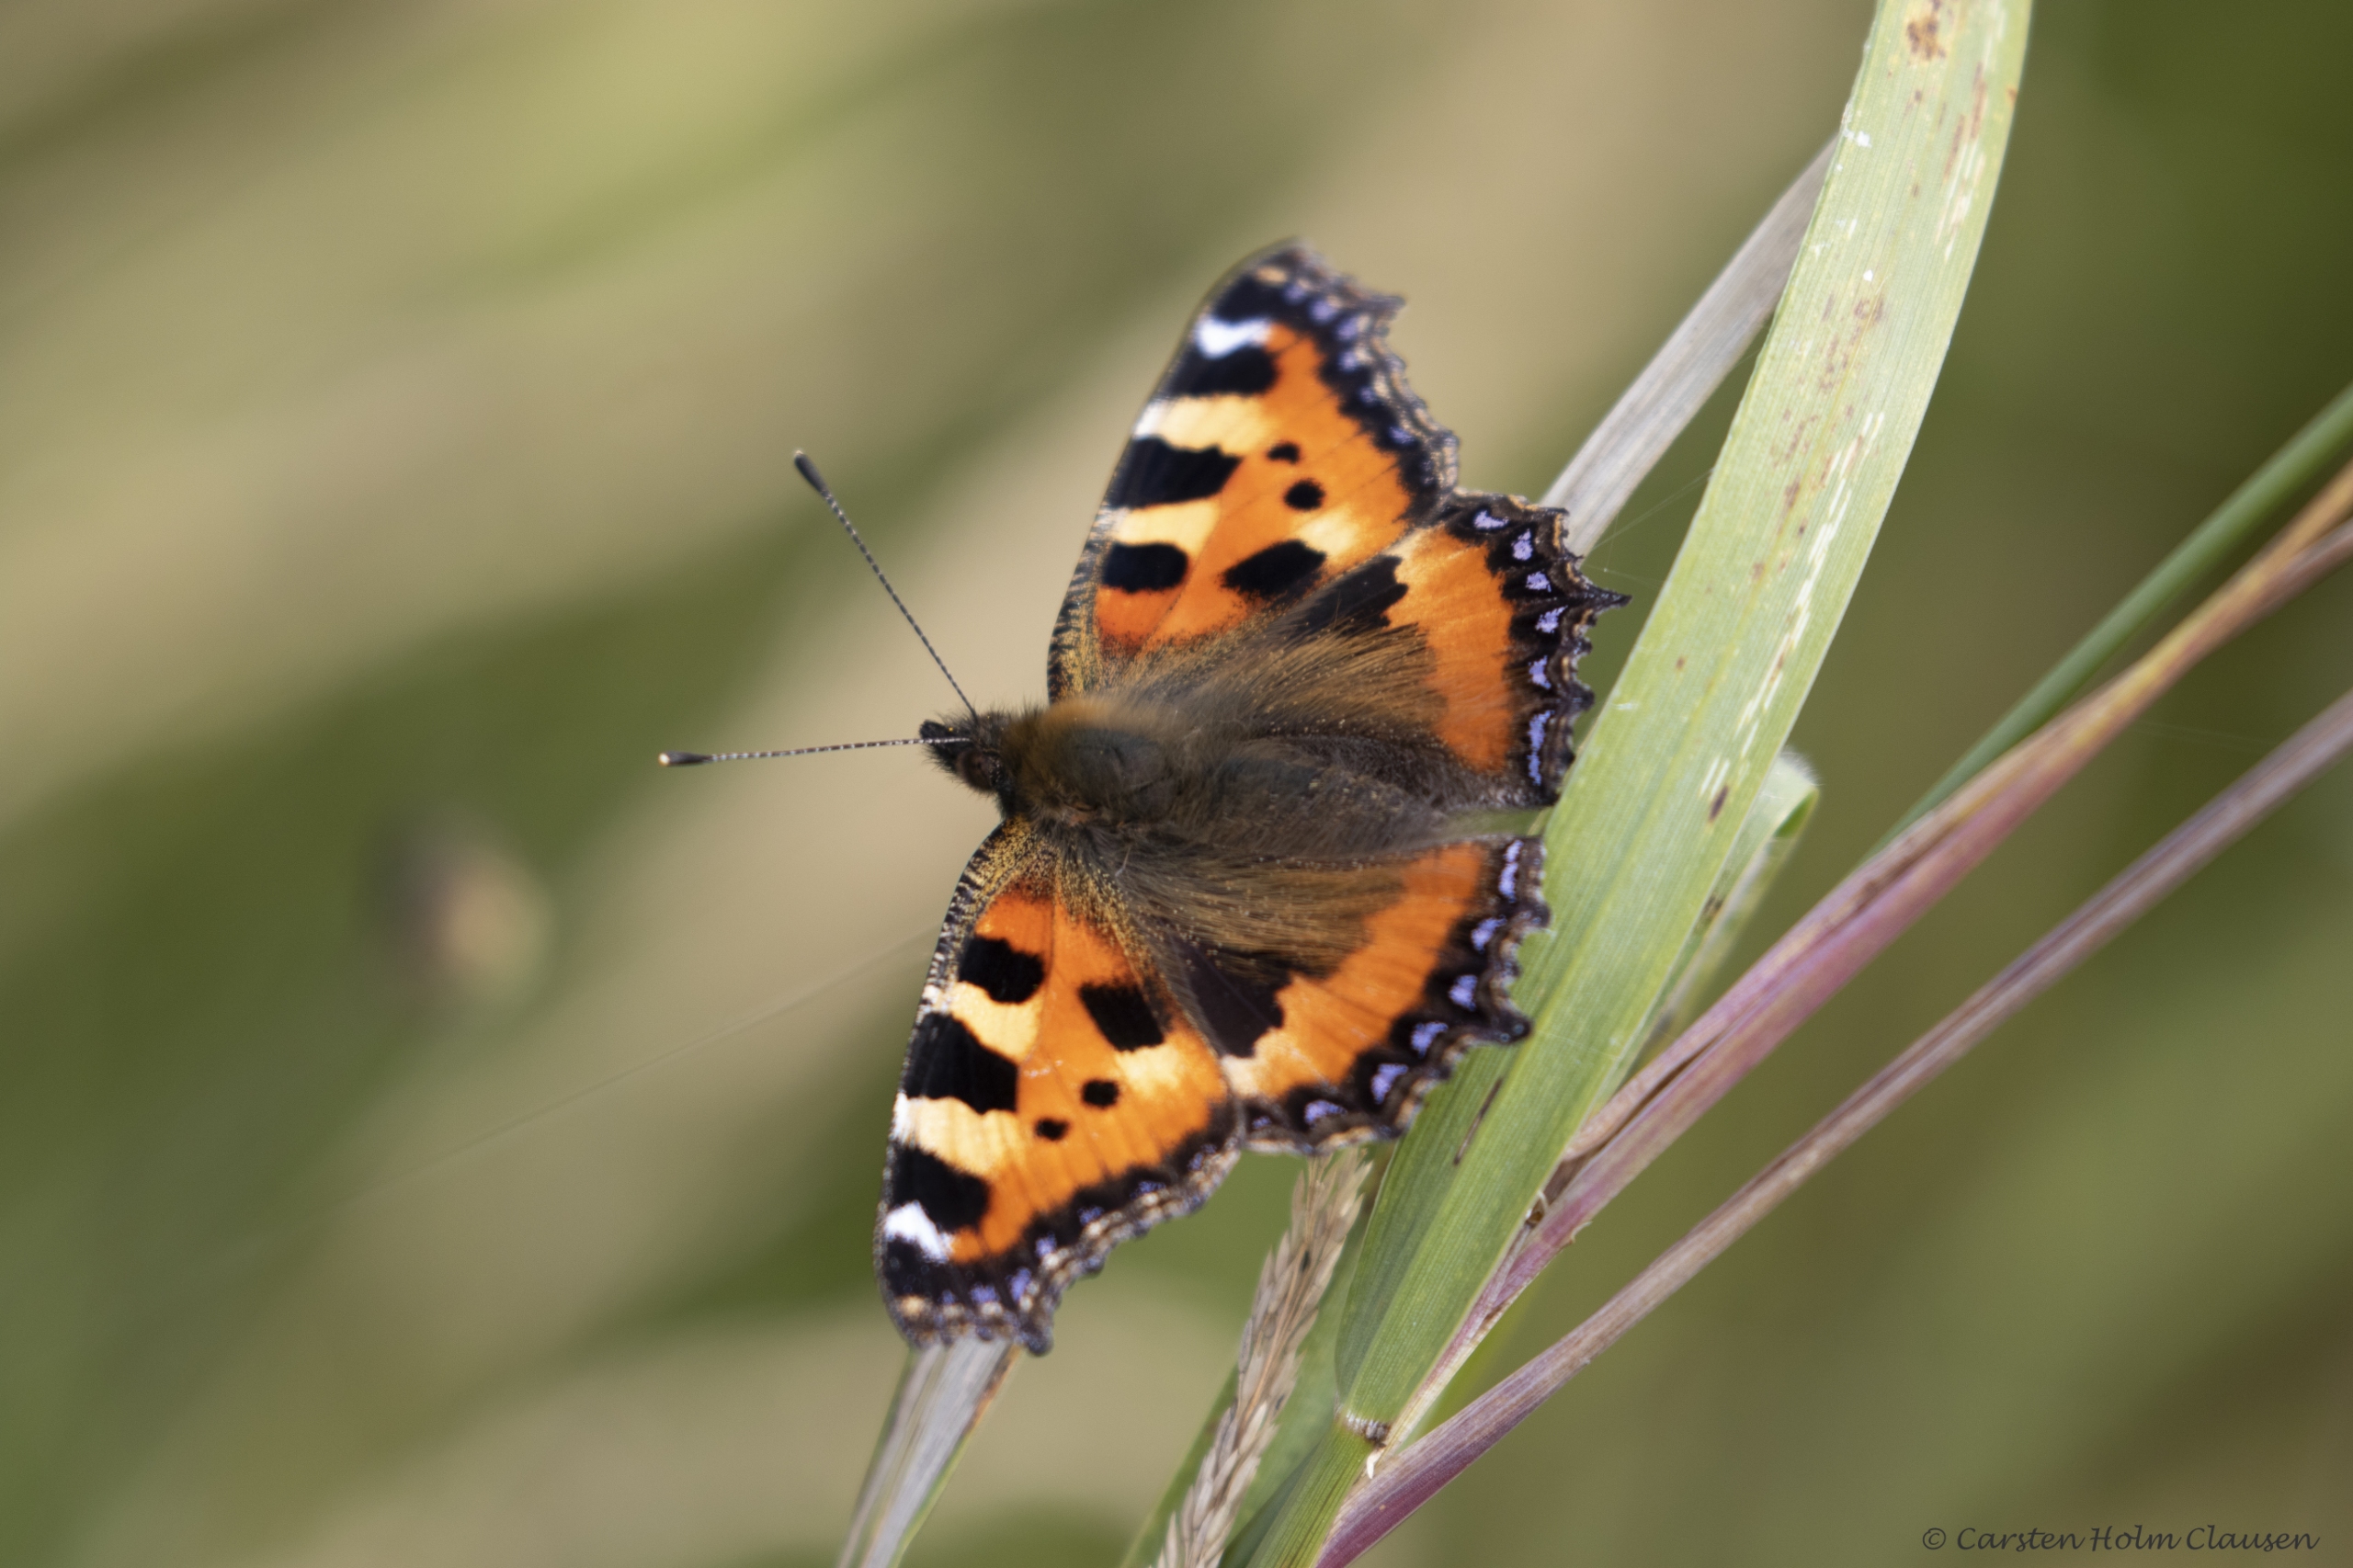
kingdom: Animalia
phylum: Arthropoda
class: Insecta
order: Lepidoptera
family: Nymphalidae
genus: Aglais
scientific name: Aglais urticae
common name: Nældens takvinge
